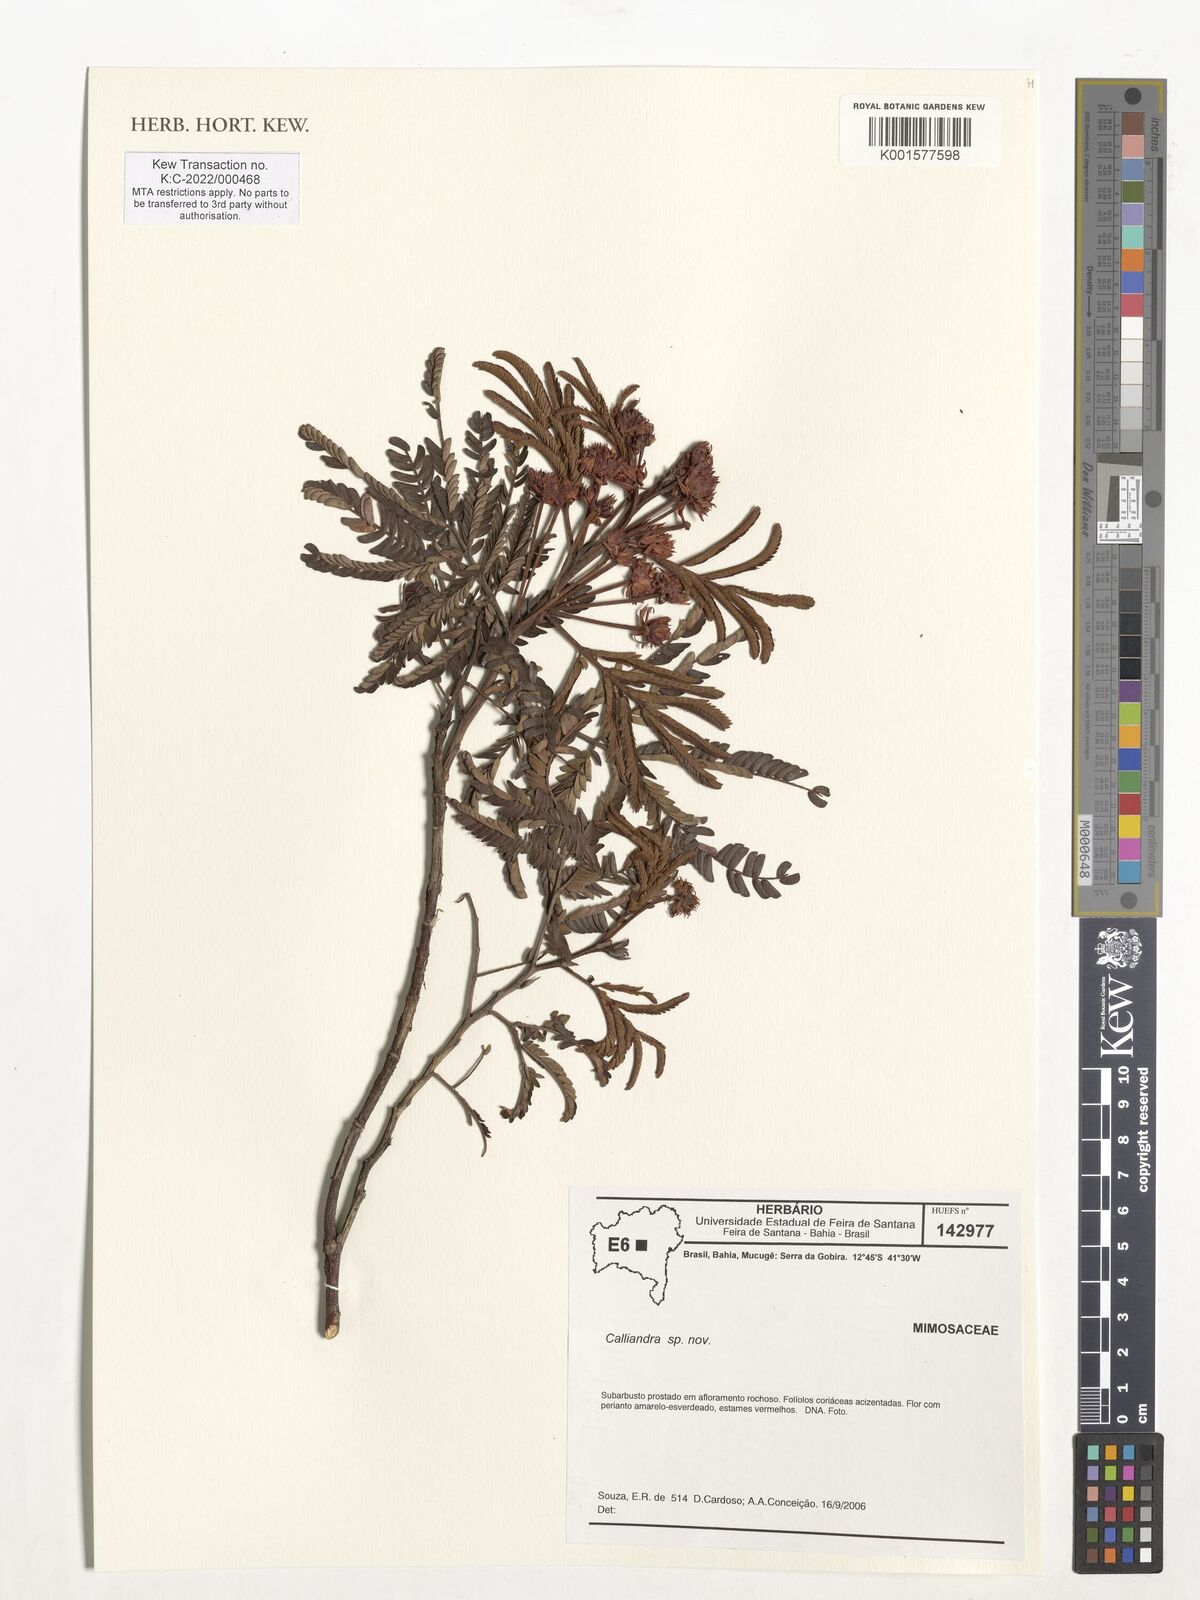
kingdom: Plantae
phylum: Tracheophyta
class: Magnoliopsida
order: Fabales
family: Fabaceae
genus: Calliandra
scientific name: Calliandra
